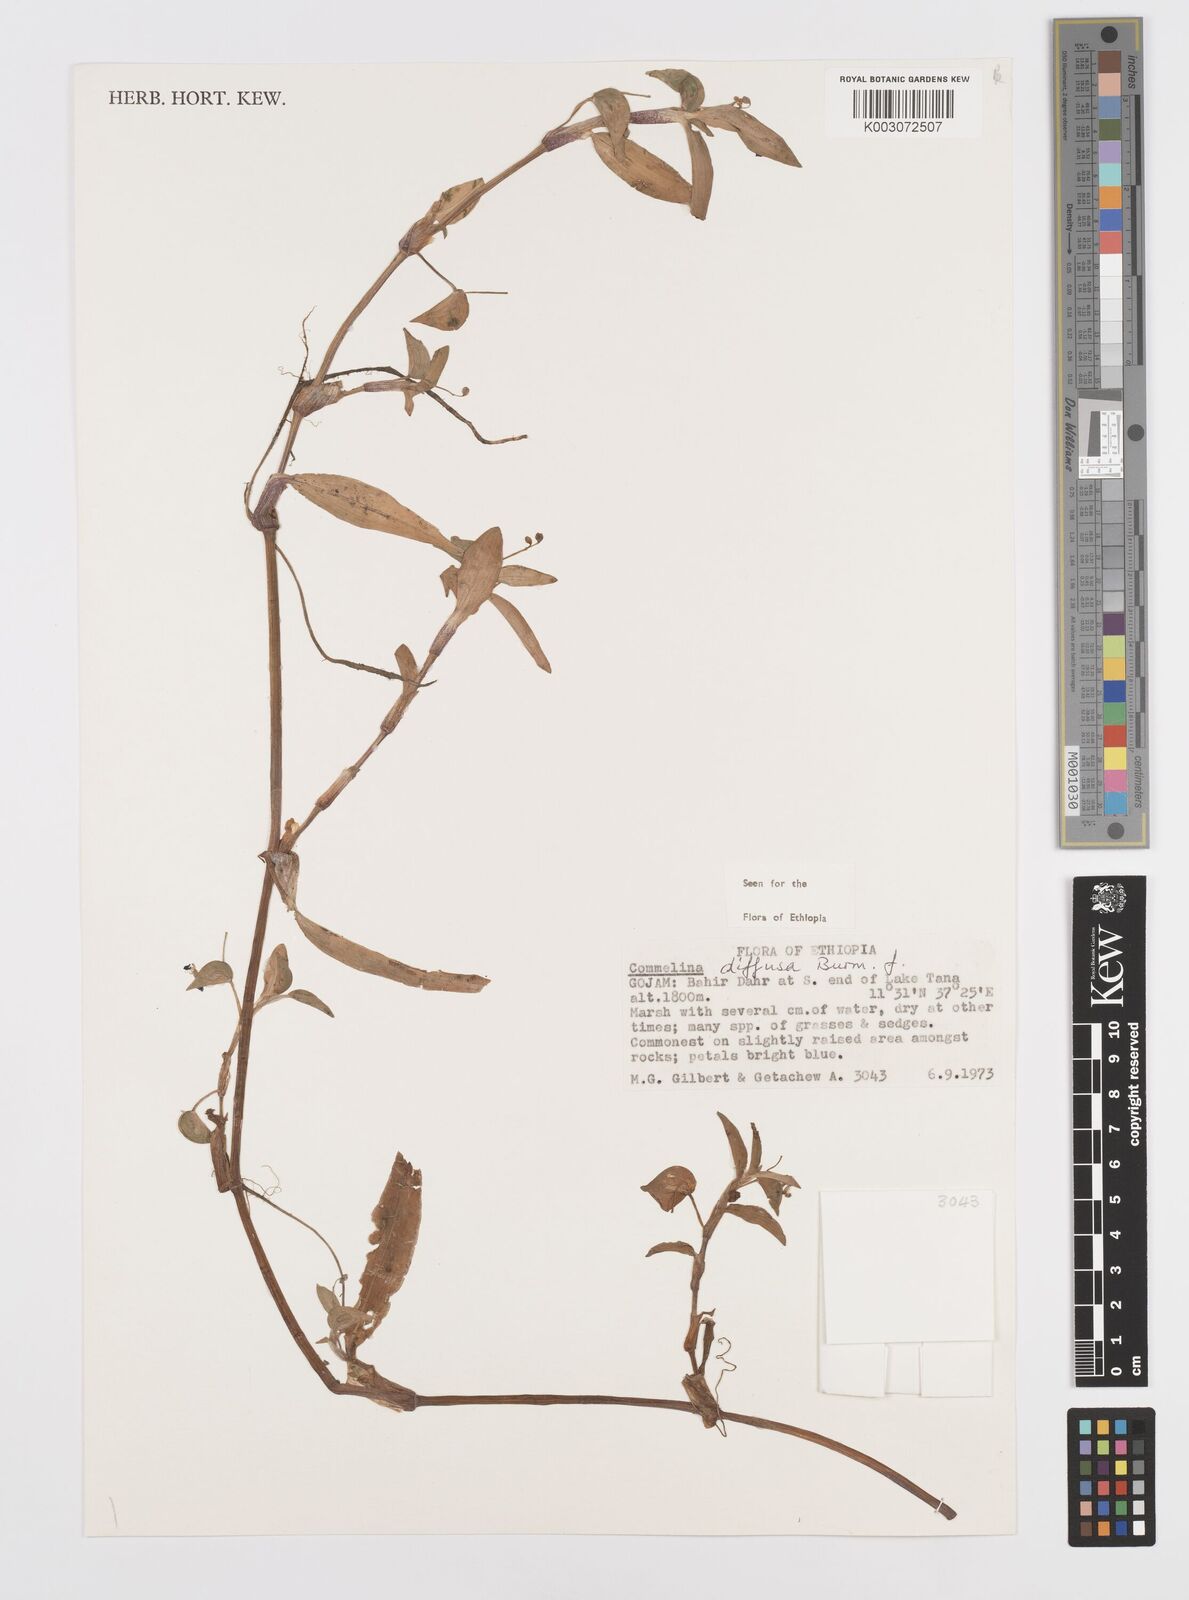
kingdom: Plantae
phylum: Tracheophyta
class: Liliopsida
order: Commelinales
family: Commelinaceae
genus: Commelina
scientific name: Commelina diffusa
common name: Climbing dayflower
